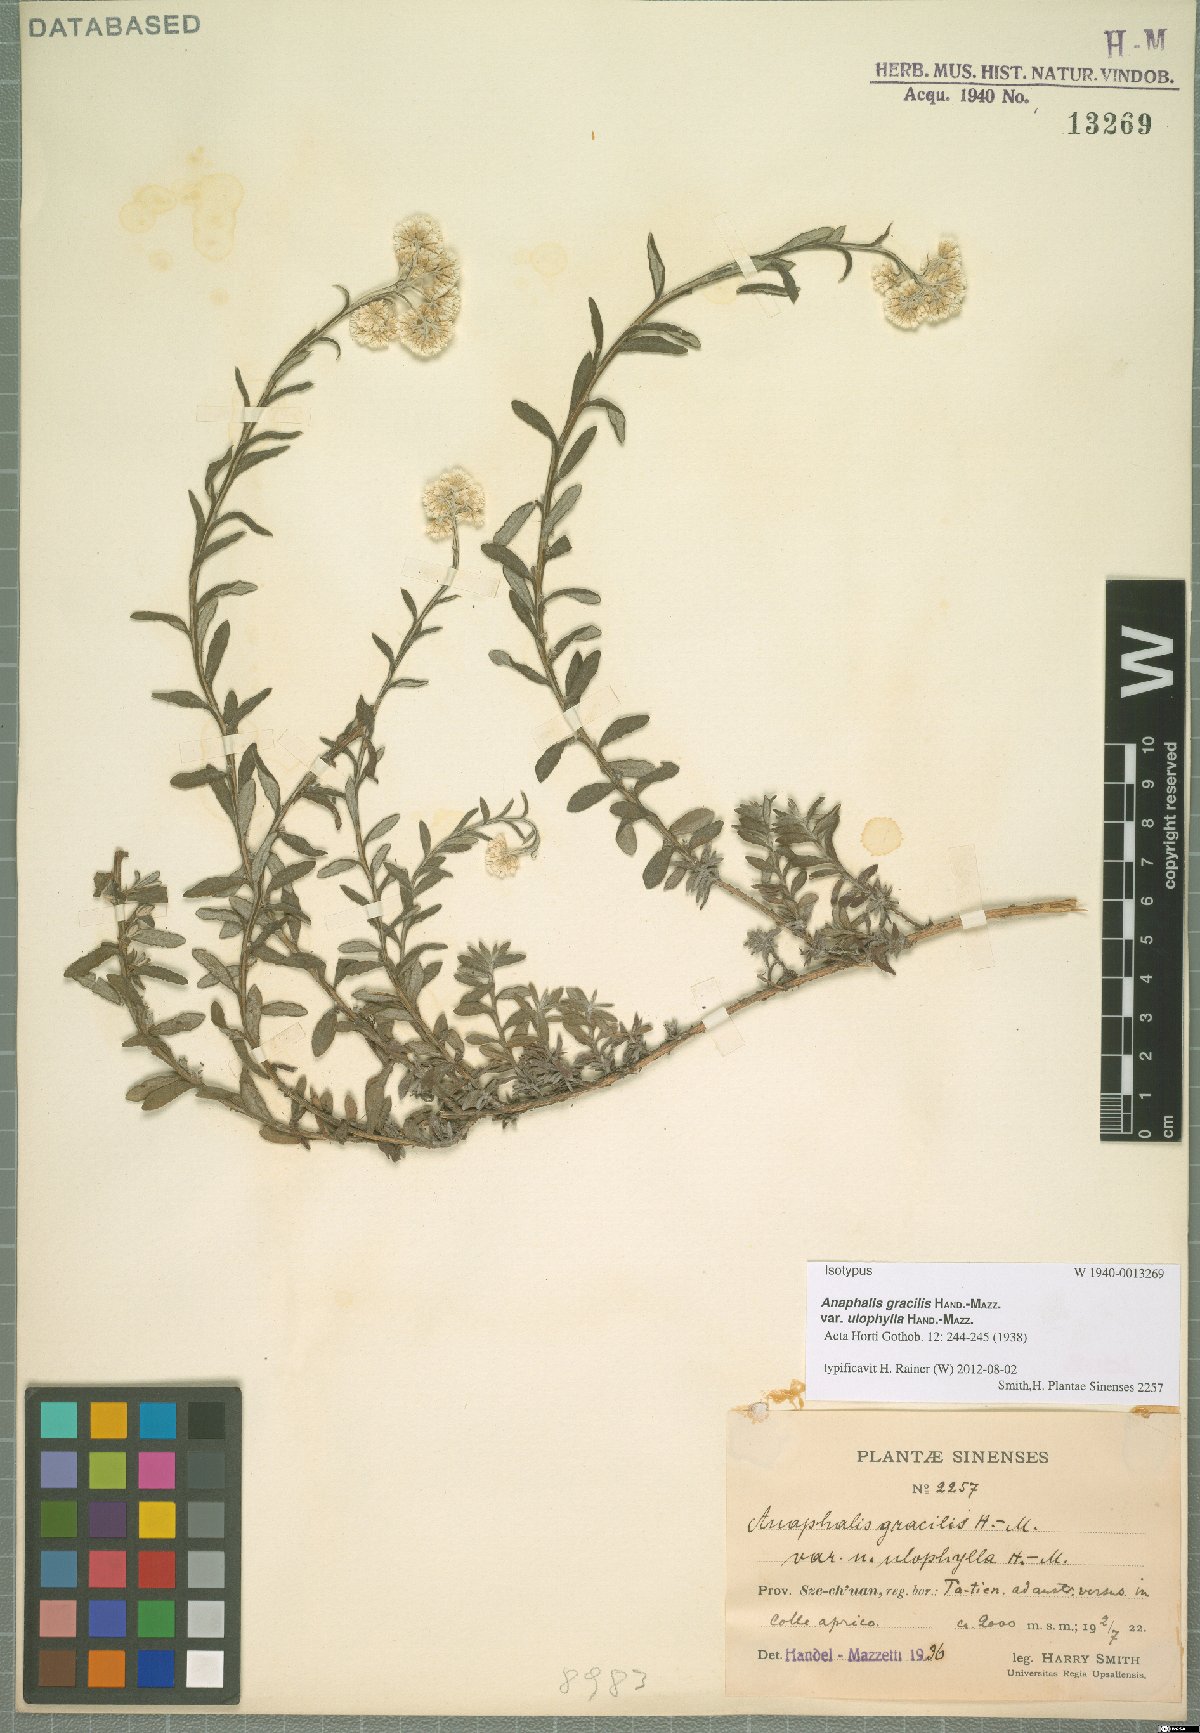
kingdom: Plantae
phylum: Tracheophyta
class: Magnoliopsida
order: Asterales
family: Asteraceae
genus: Anaphalis
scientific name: Anaphalis gracilis
